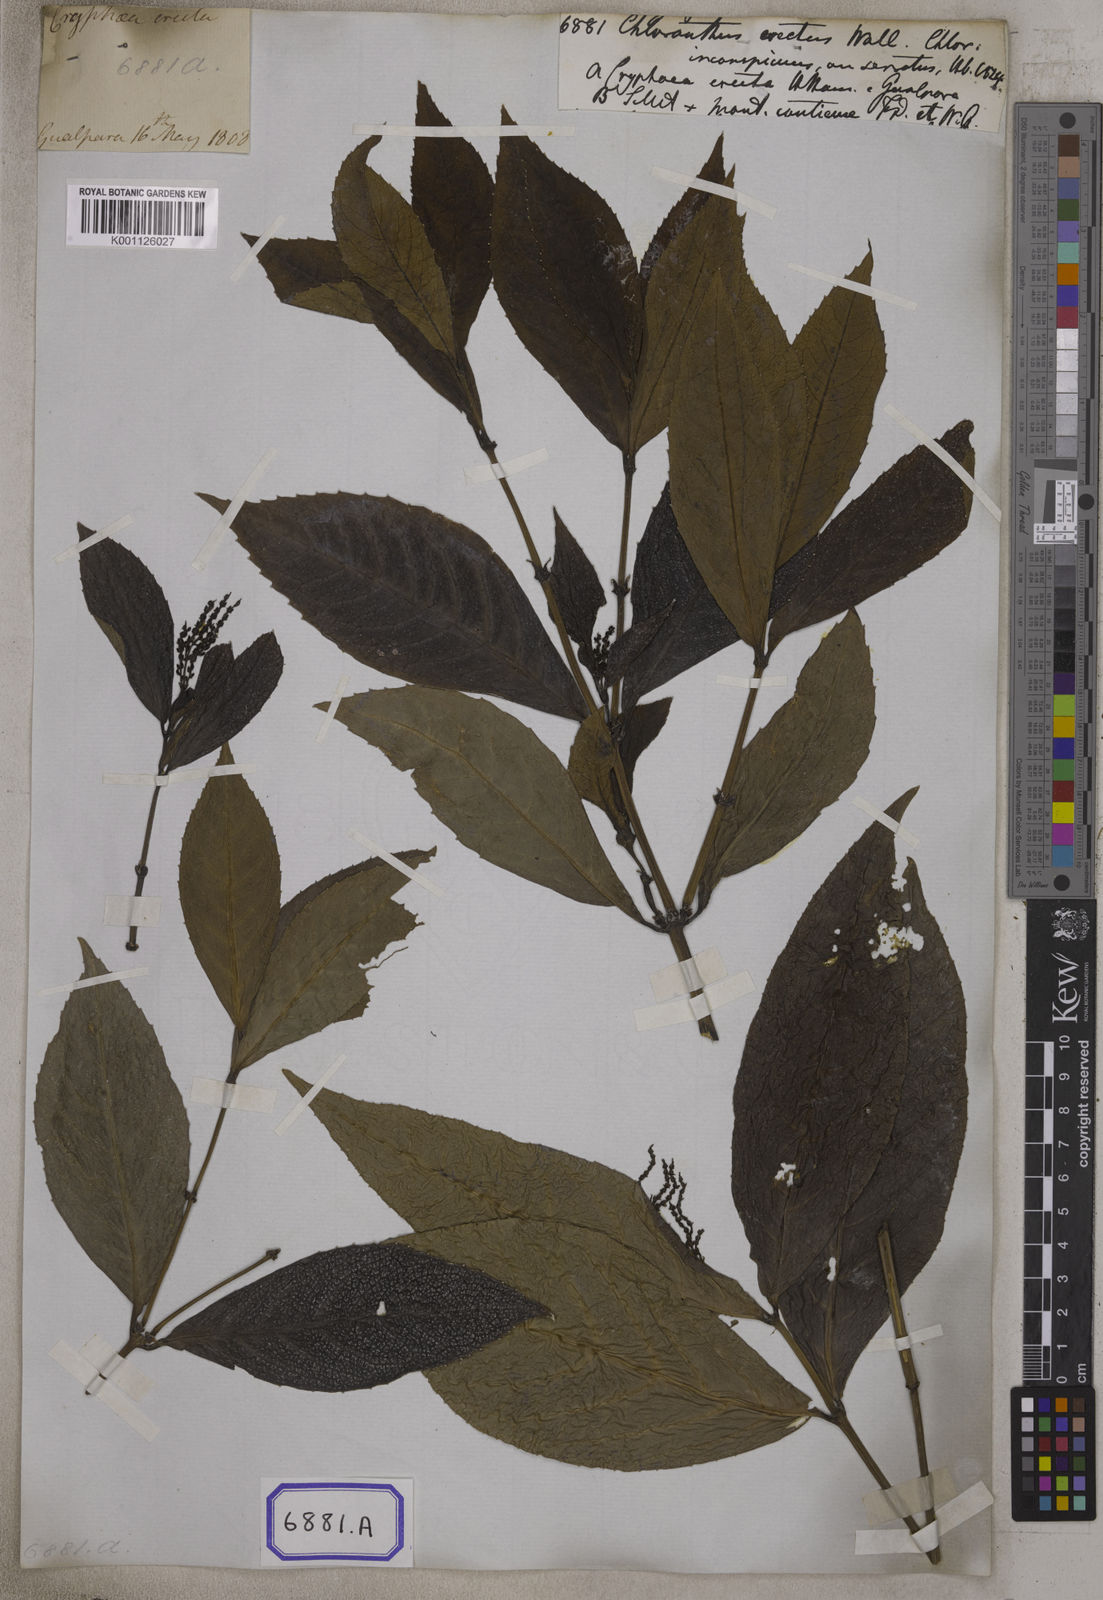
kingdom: Plantae
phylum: Tracheophyta
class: Magnoliopsida
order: Chloranthales
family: Chloranthaceae
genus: Chloranthus
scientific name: Chloranthus
